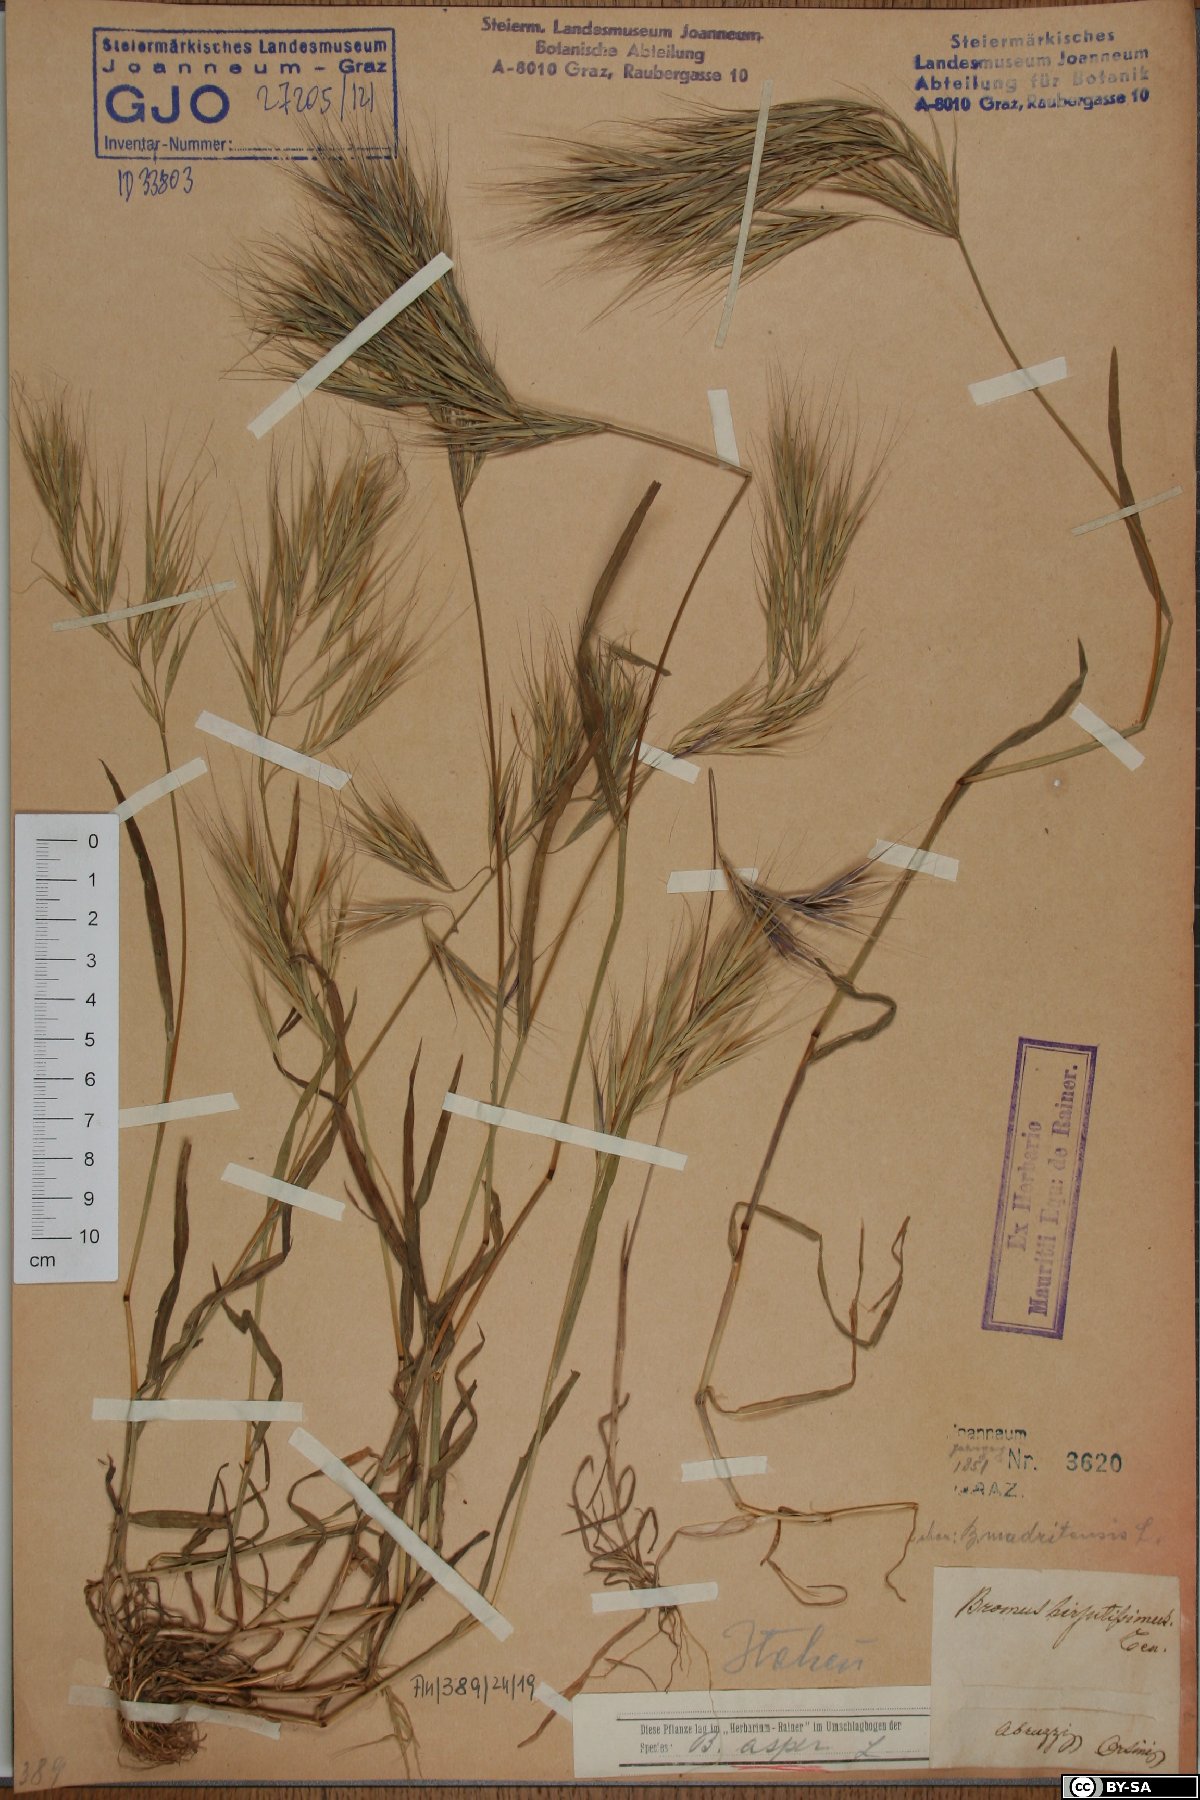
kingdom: Plantae
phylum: Tracheophyta
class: Liliopsida
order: Poales
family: Poaceae
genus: Bromus
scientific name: Bromus ramosus
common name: Hairy brome
